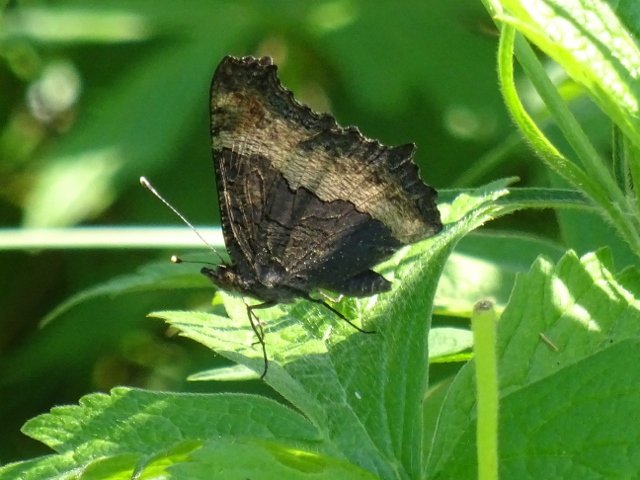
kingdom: Animalia
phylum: Arthropoda
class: Insecta
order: Lepidoptera
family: Nymphalidae
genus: Aglais
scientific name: Aglais milberti
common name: Milbert's Tortoiseshell
